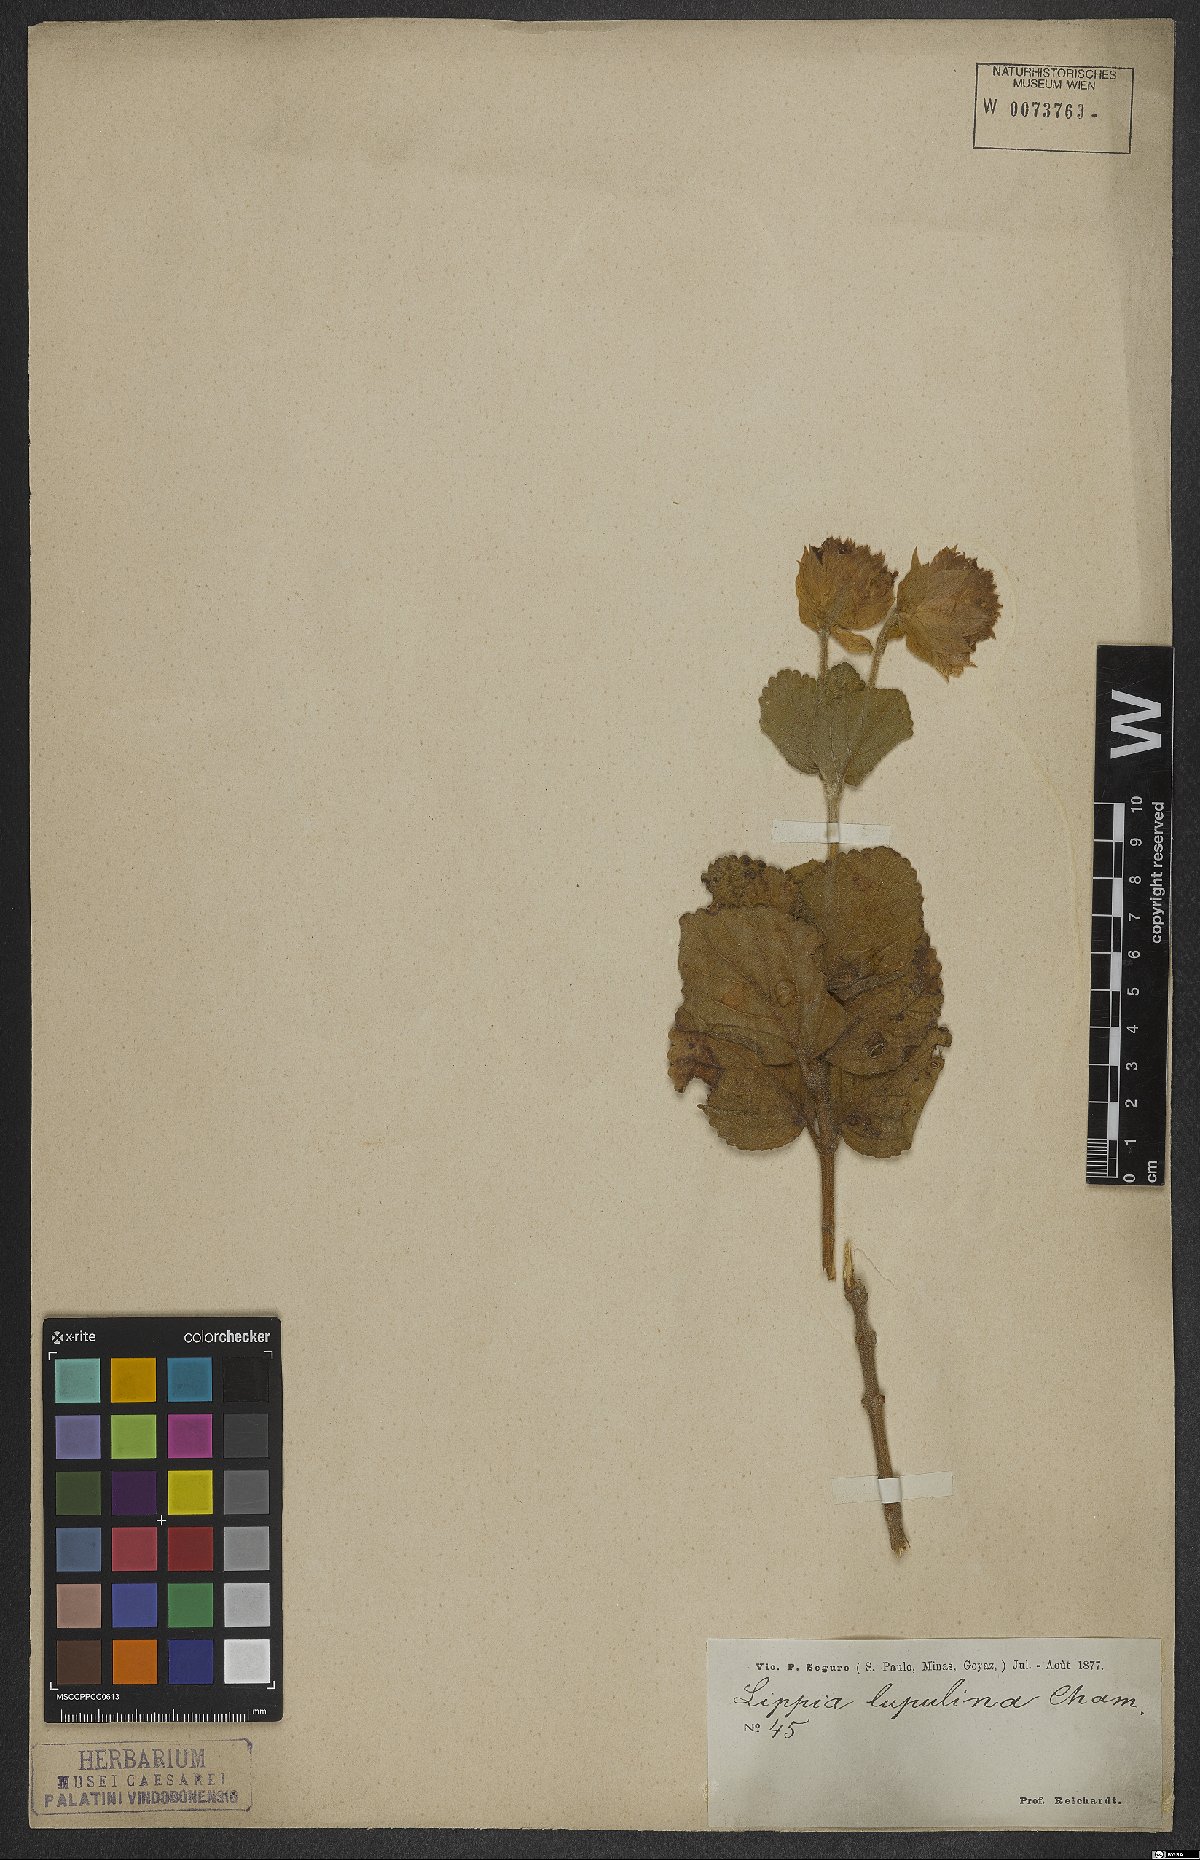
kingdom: Plantae
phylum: Tracheophyta
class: Magnoliopsida
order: Lamiales
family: Verbenaceae
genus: Lippia
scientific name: Lippia lupulina
